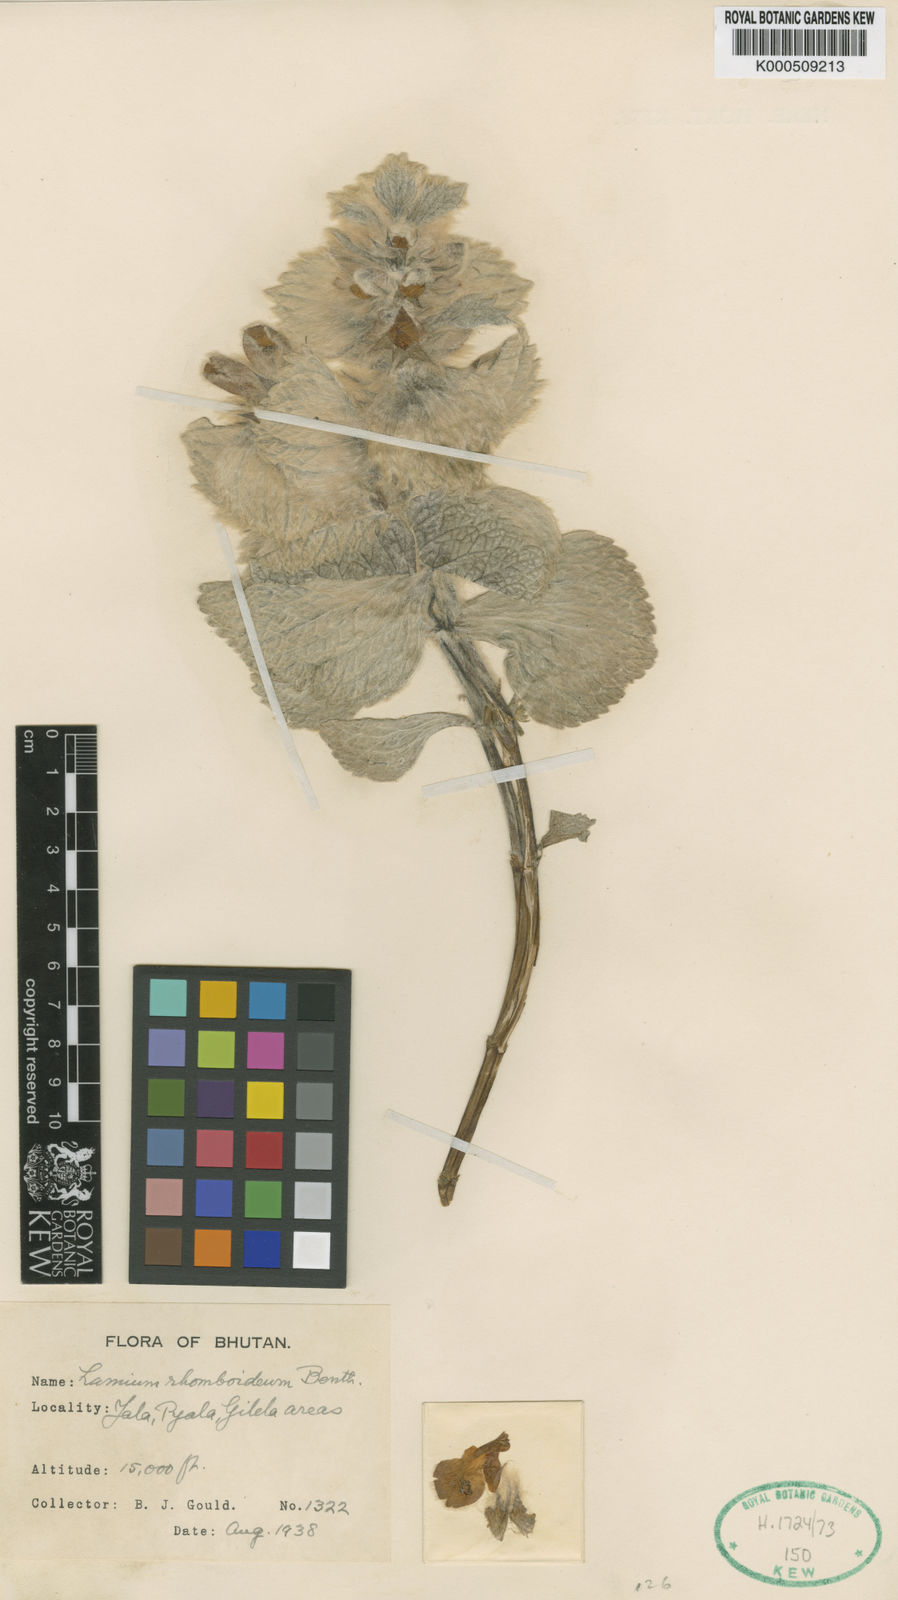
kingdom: Plantae
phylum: Tracheophyta
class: Magnoliopsida
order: Lamiales
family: Lamiaceae
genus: Eriophyton
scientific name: Eriophyton rhomboideum
